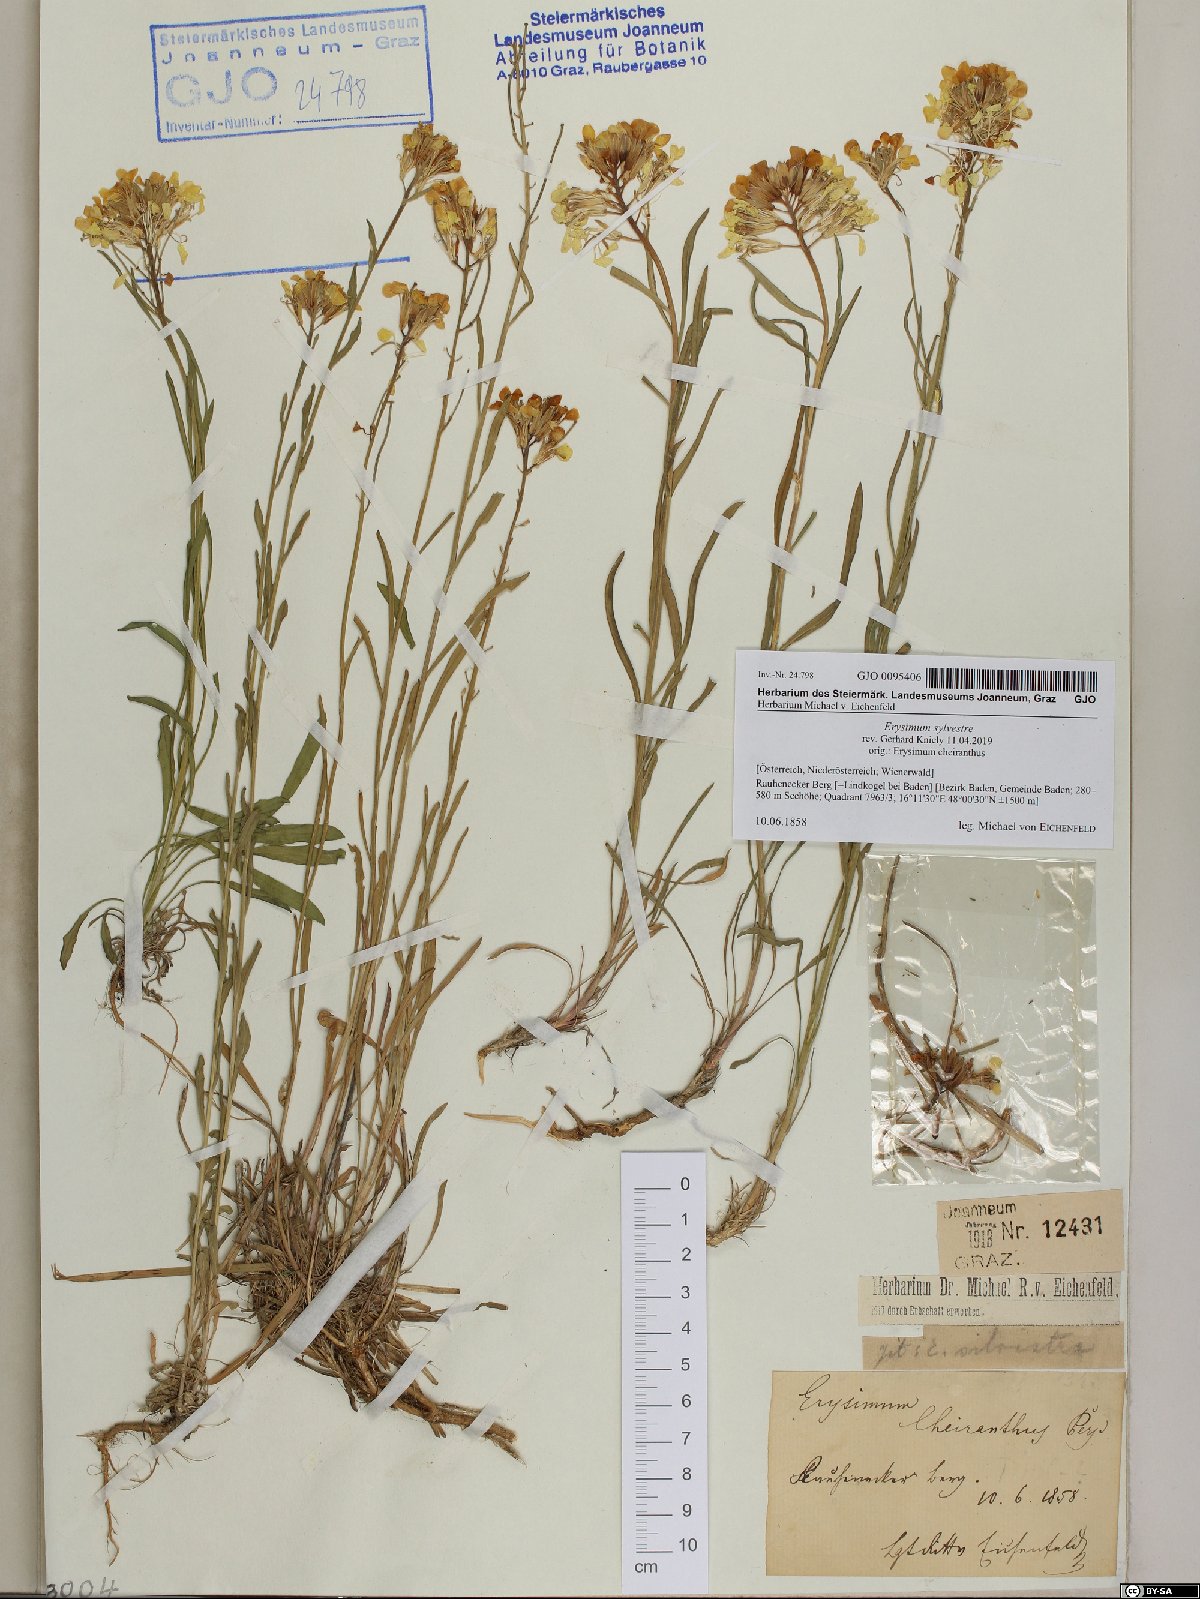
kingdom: Plantae
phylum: Tracheophyta
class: Magnoliopsida
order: Brassicales
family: Brassicaceae
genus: Erysimum
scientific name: Erysimum sylvestre
